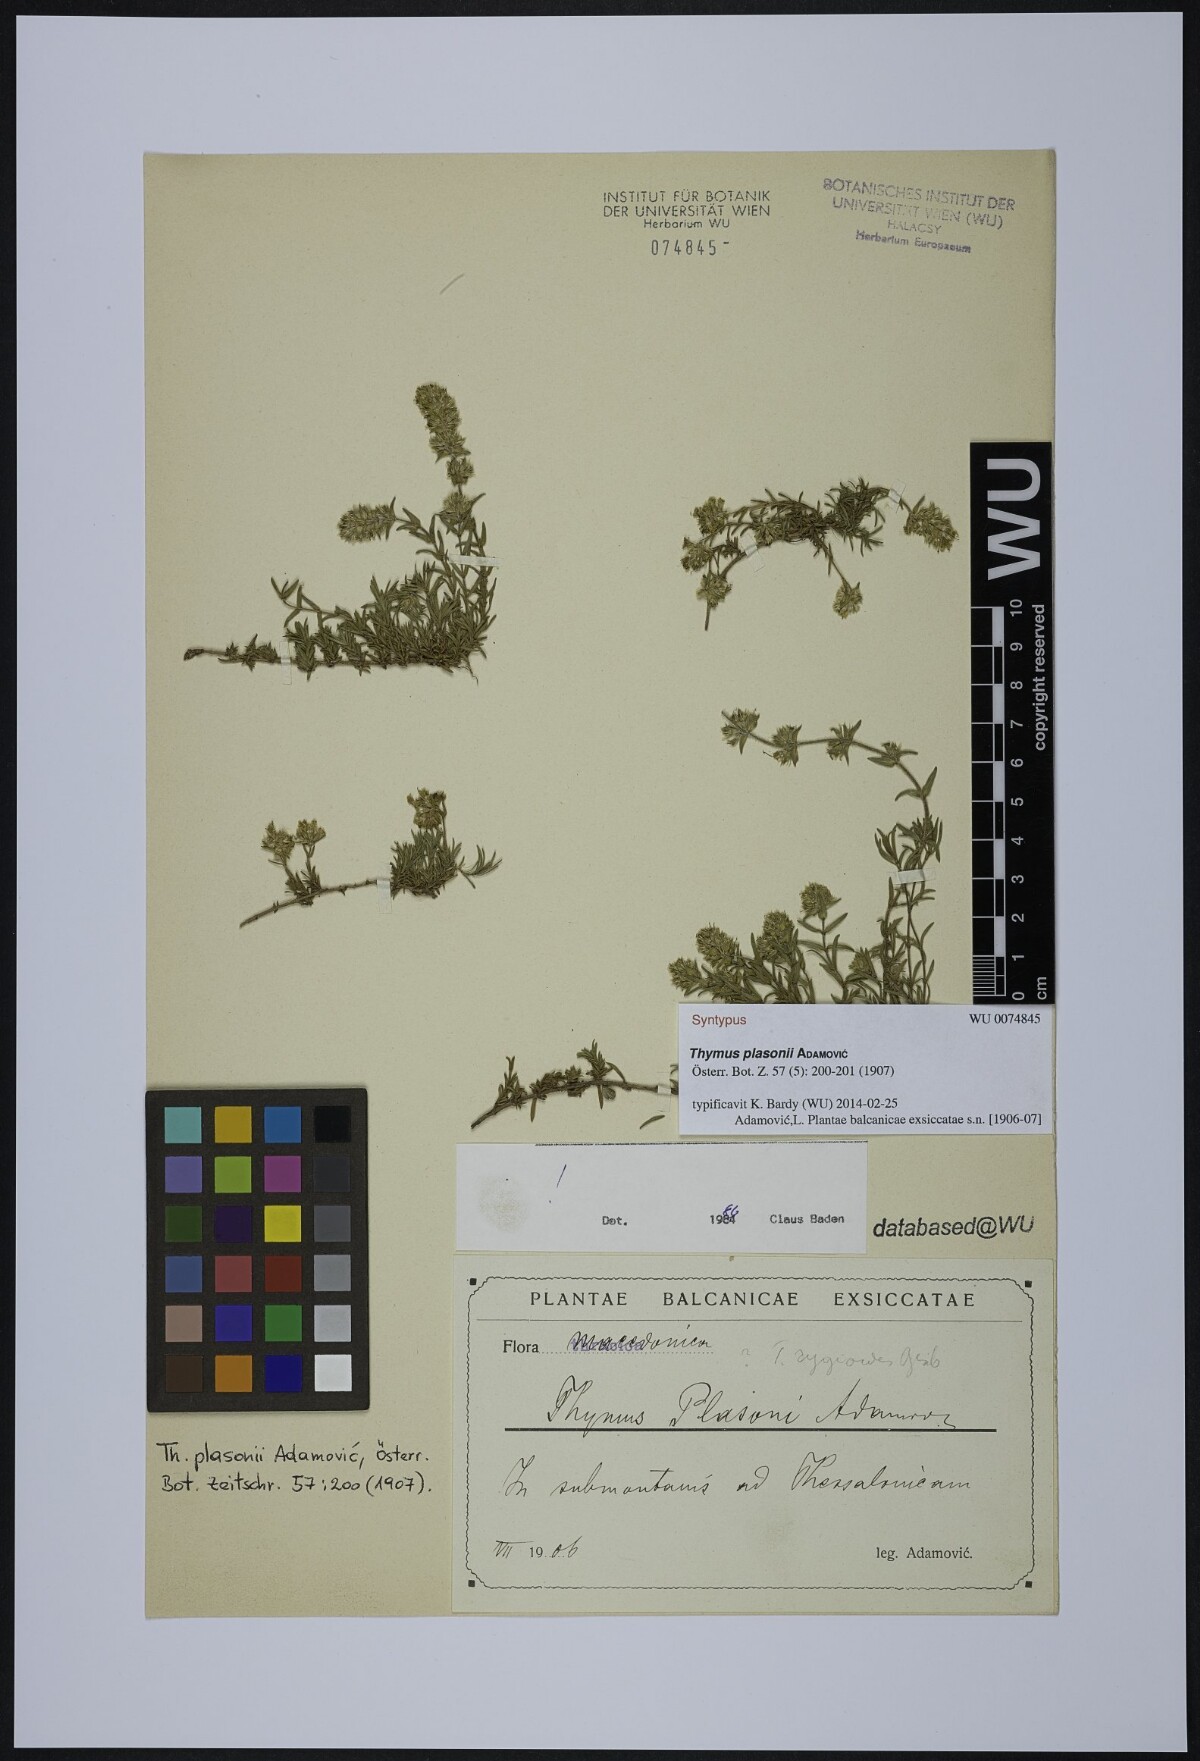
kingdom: Plantae
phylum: Tracheophyta
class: Magnoliopsida
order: Lamiales
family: Lamiaceae
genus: Thymus
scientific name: Thymus plasonii
